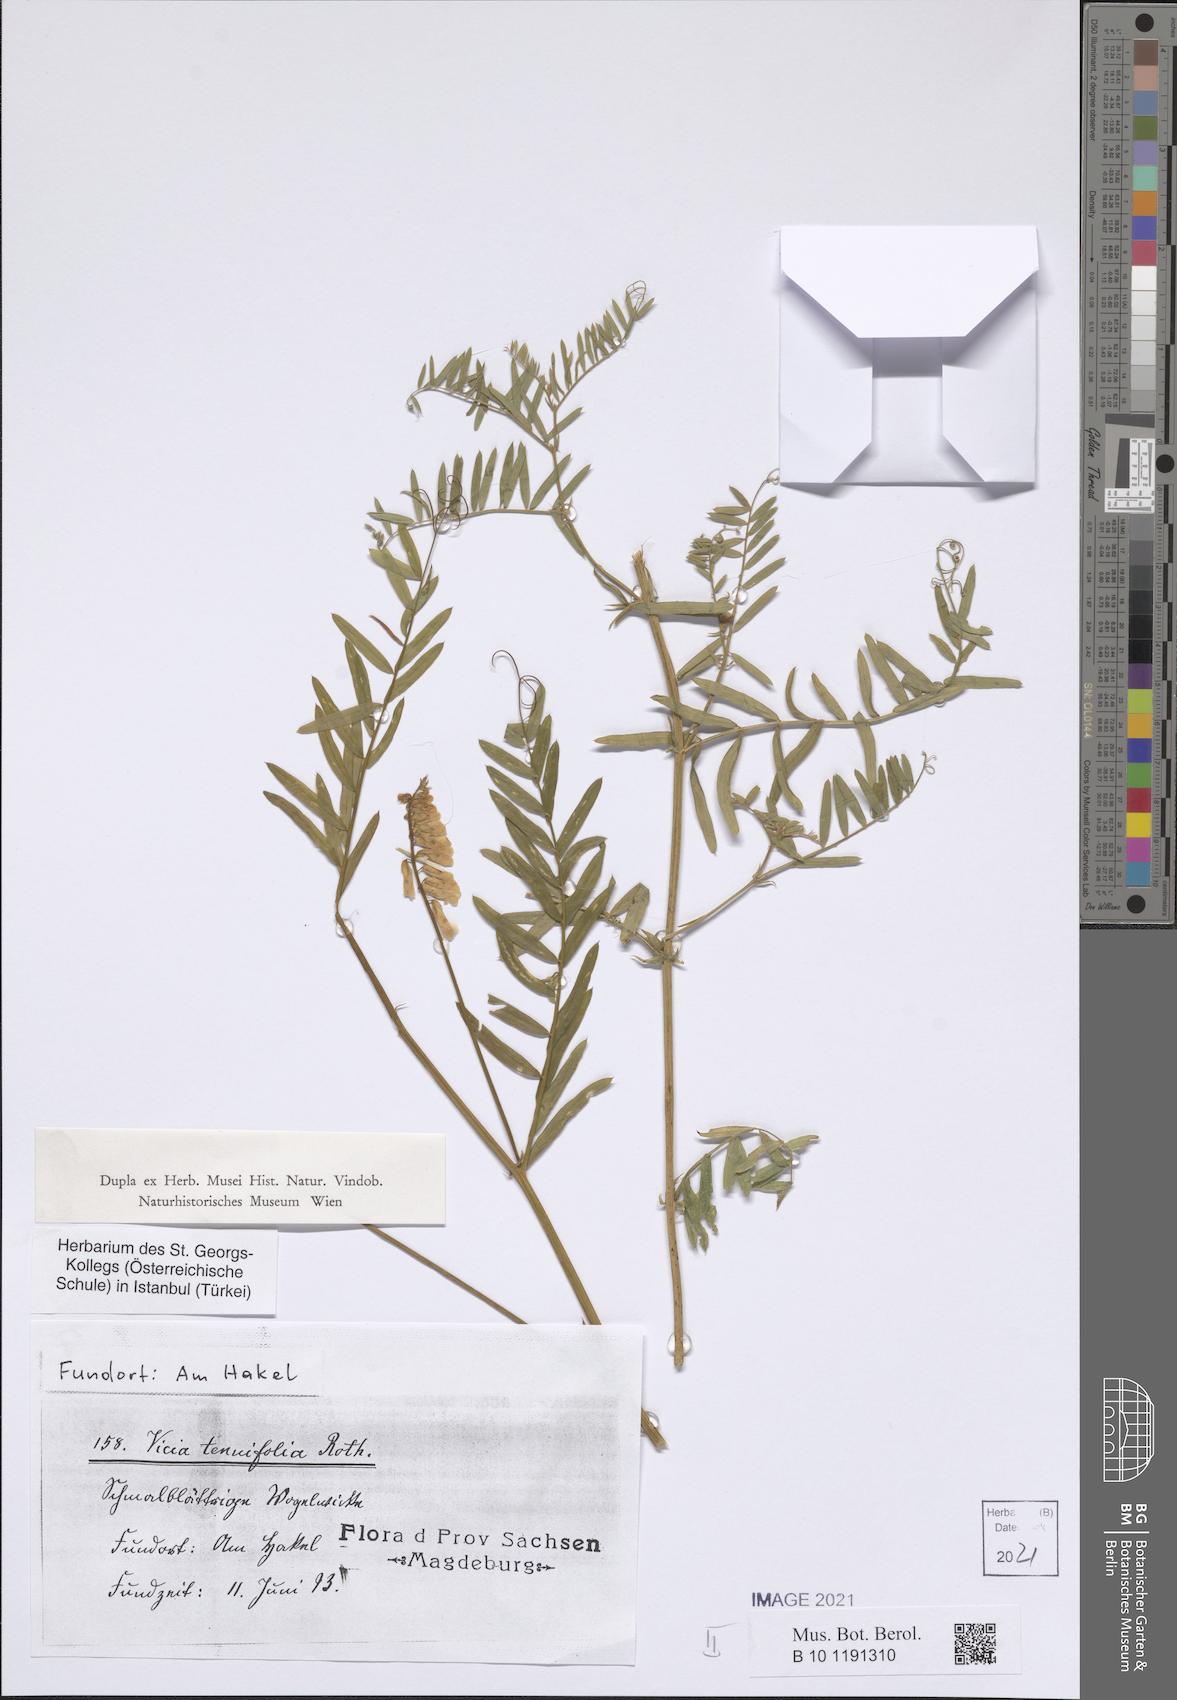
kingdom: Plantae
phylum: Tracheophyta
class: Magnoliopsida
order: Fabales
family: Fabaceae
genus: Vicia
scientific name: Vicia tenuifolia
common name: Fine-leaved vetch
